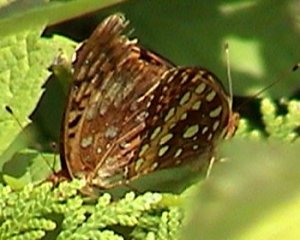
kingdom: Animalia
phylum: Arthropoda
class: Insecta
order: Lepidoptera
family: Nymphalidae
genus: Speyeria
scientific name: Speyeria aphrodite
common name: Aphrodite Fritillary
